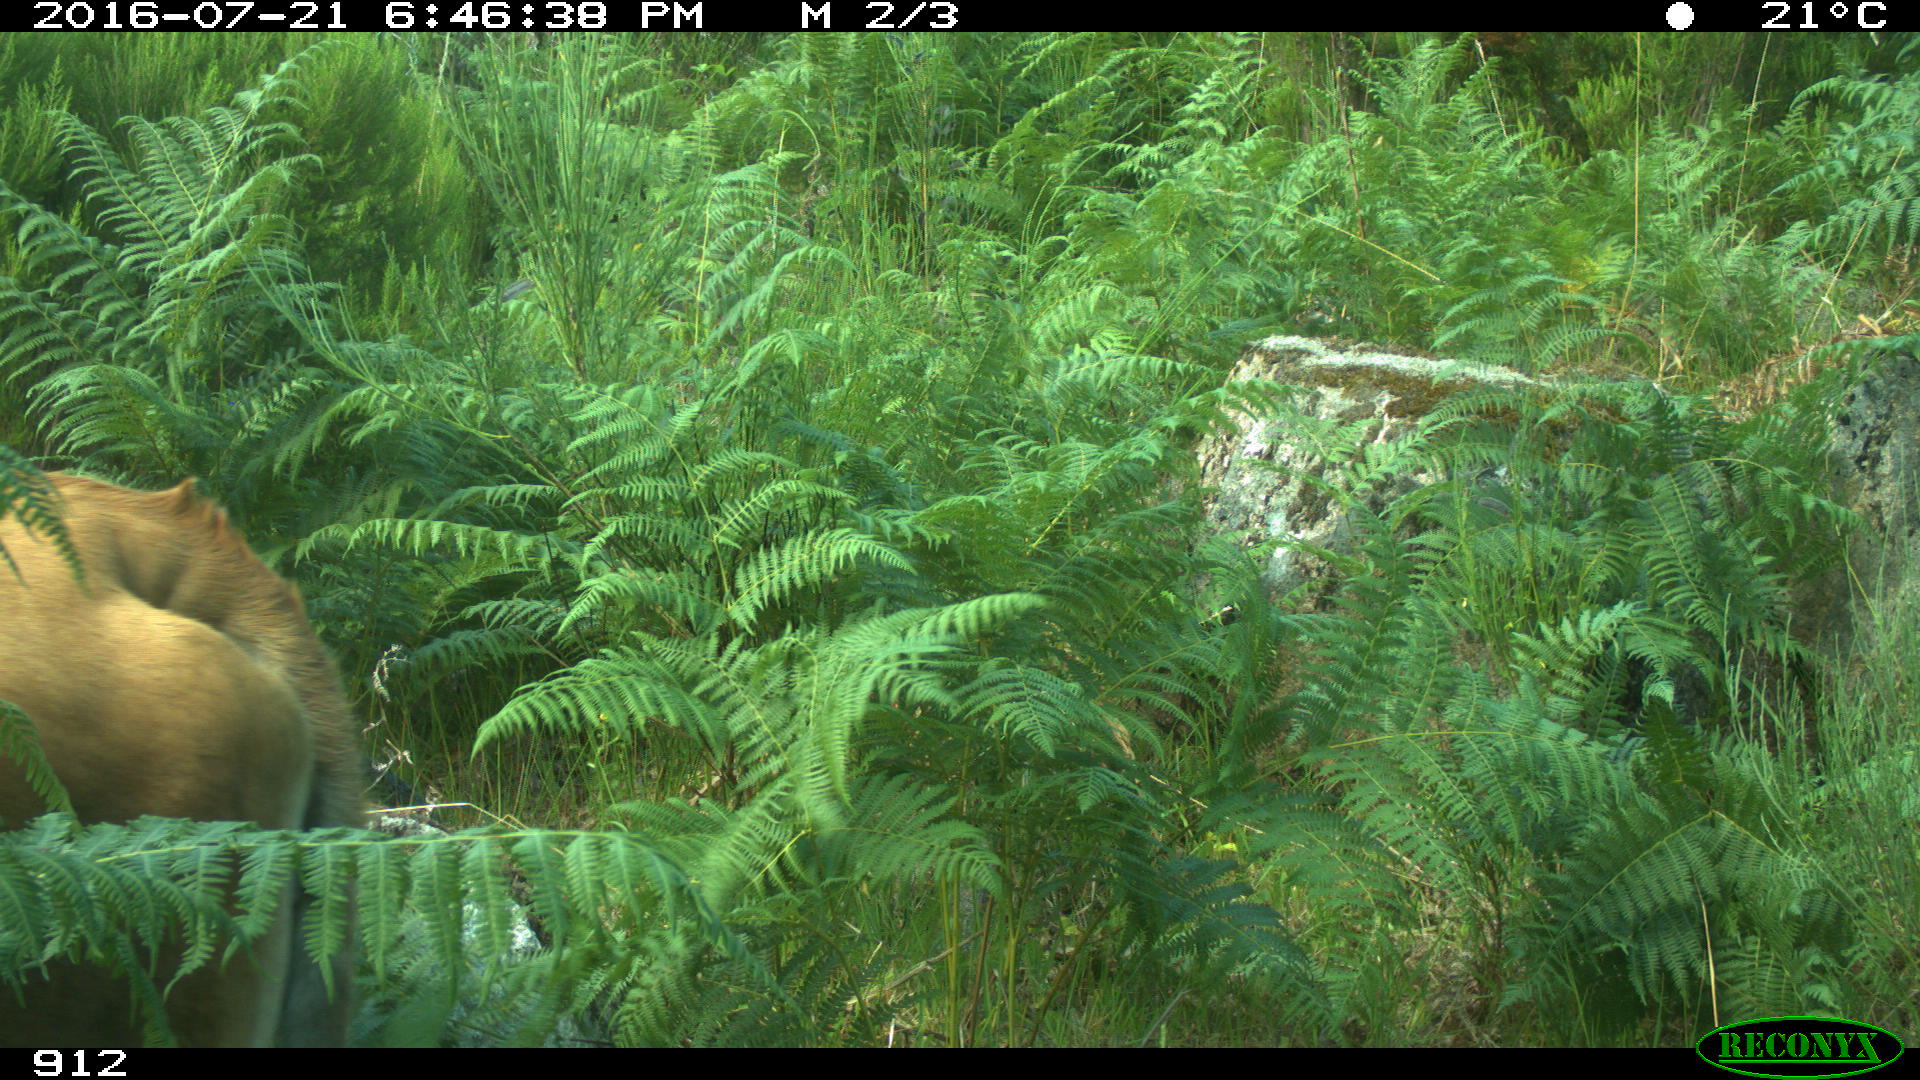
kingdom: Animalia
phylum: Chordata
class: Mammalia
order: Artiodactyla
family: Bovidae
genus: Bos
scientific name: Bos taurus
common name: Domesticated cattle
